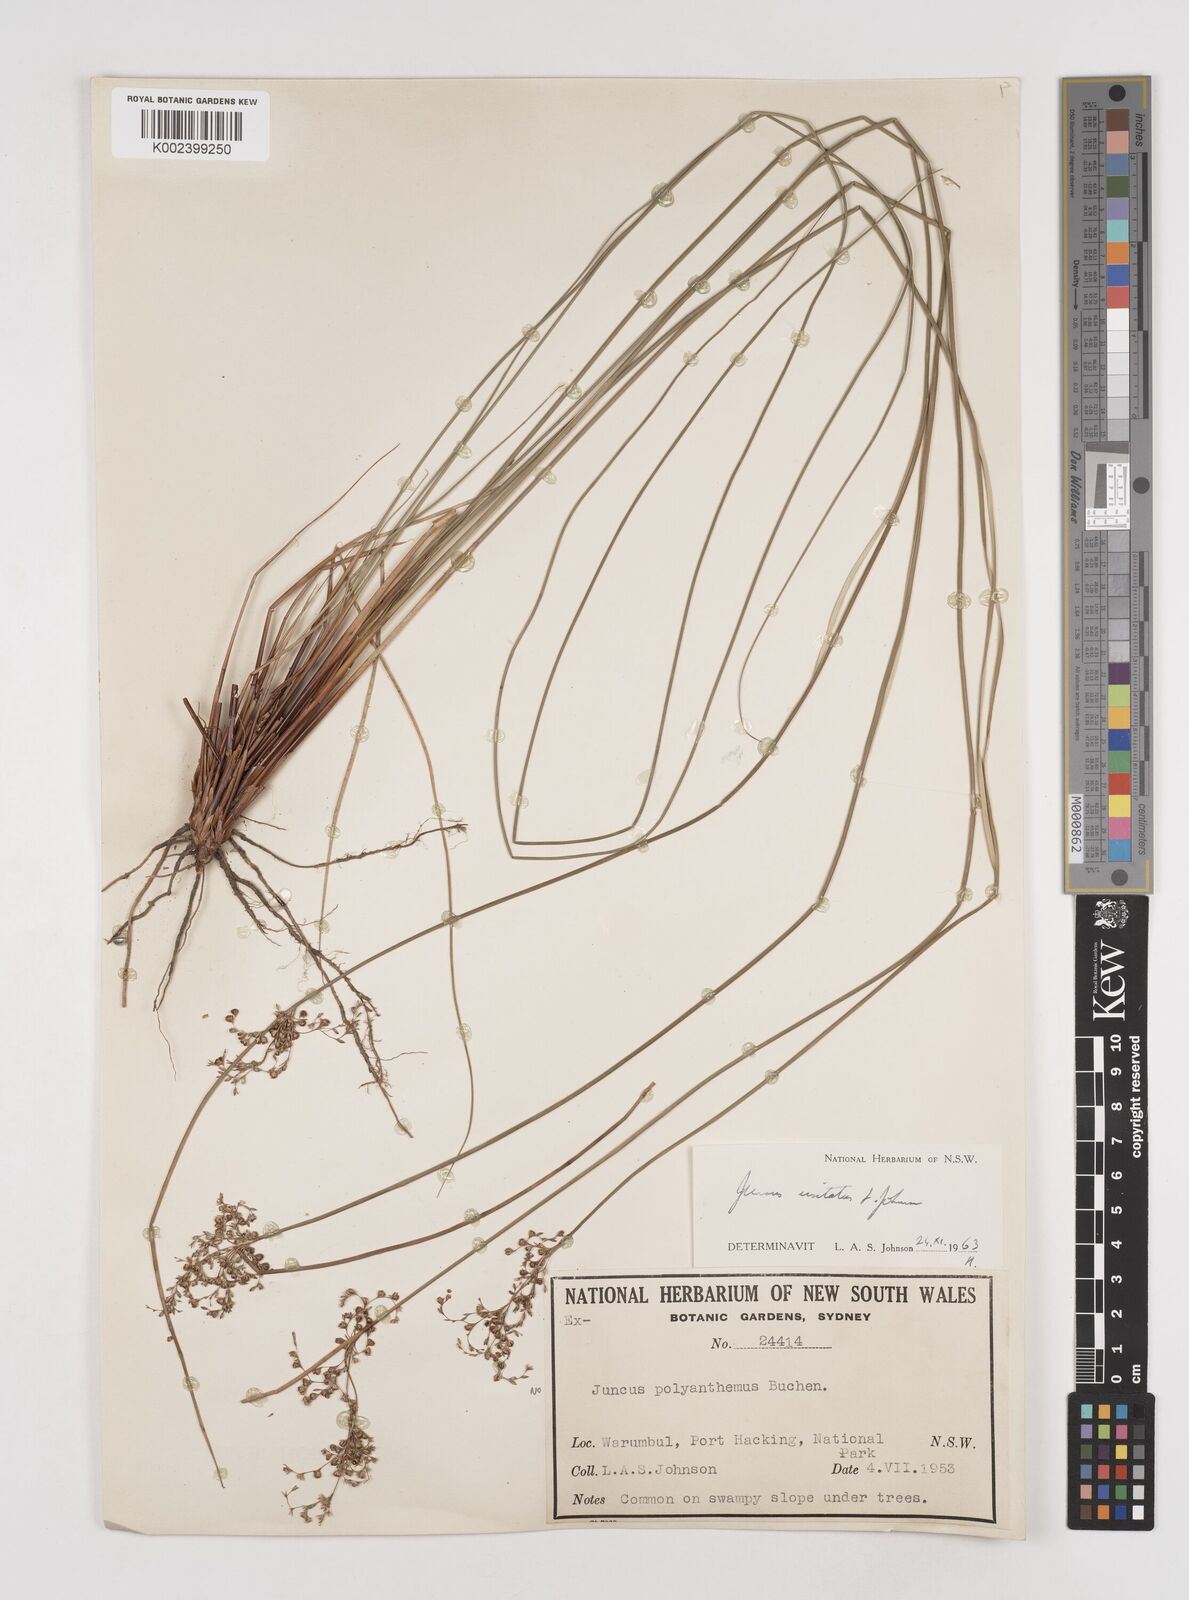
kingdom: Plantae
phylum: Tracheophyta
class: Liliopsida
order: Poales
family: Juncaceae
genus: Juncus
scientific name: Juncus usitatus
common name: Rush
